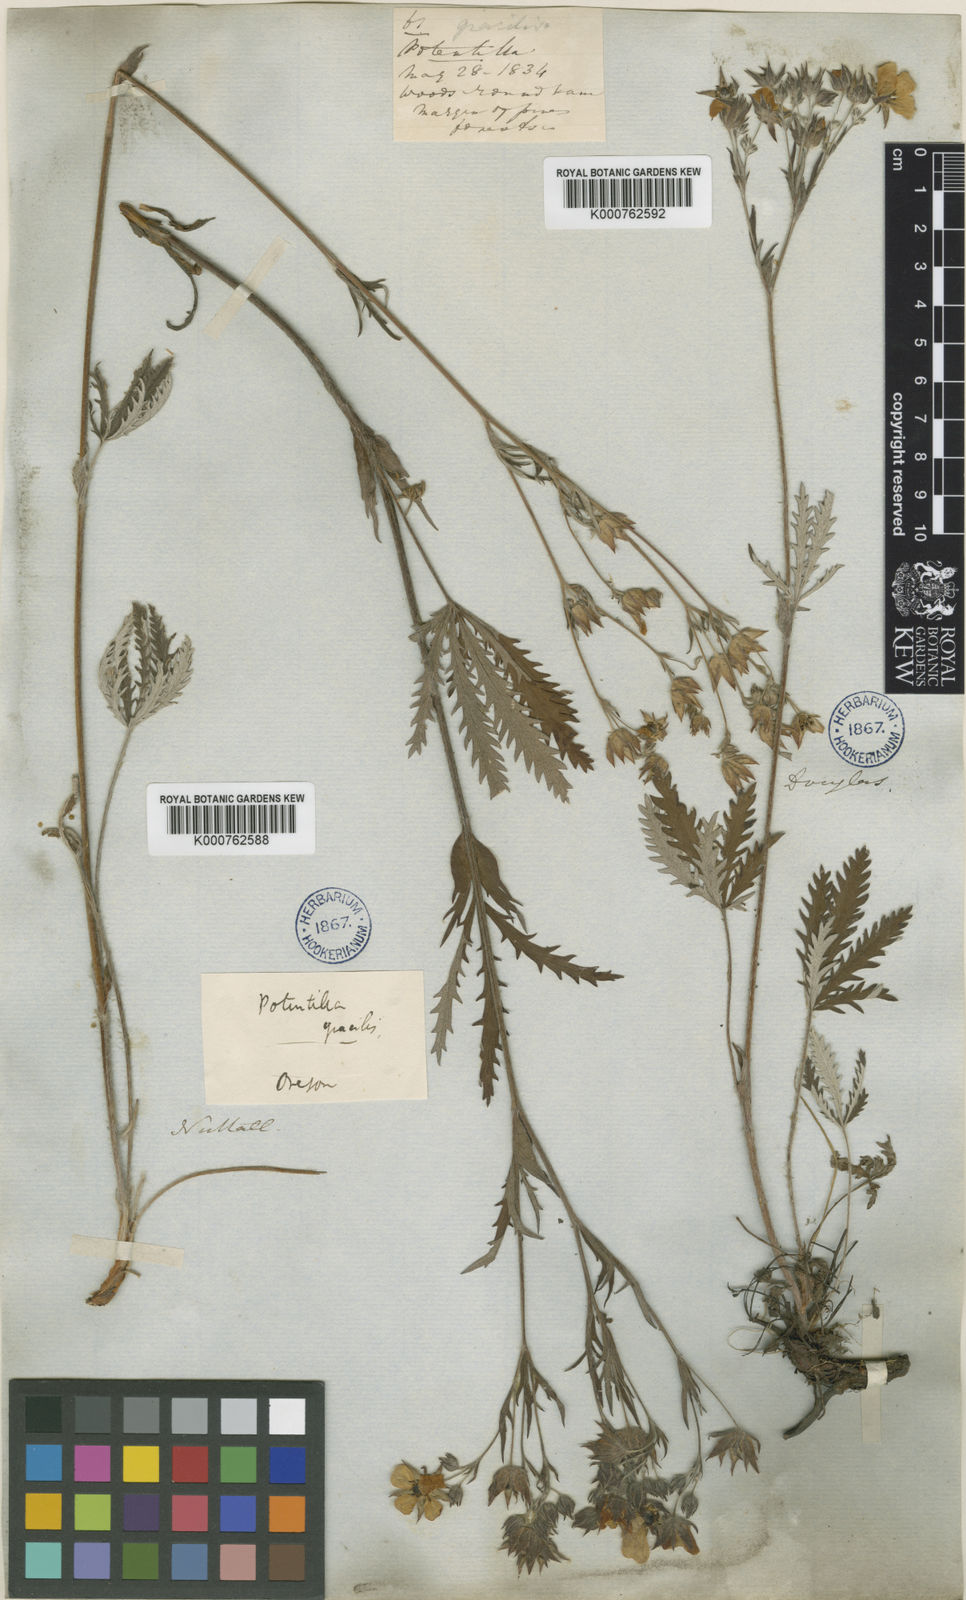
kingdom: Plantae
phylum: Tracheophyta
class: Magnoliopsida
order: Rosales
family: Rosaceae
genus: Potentilla
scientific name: Potentilla gracilis
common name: Graceful cinquefoil
